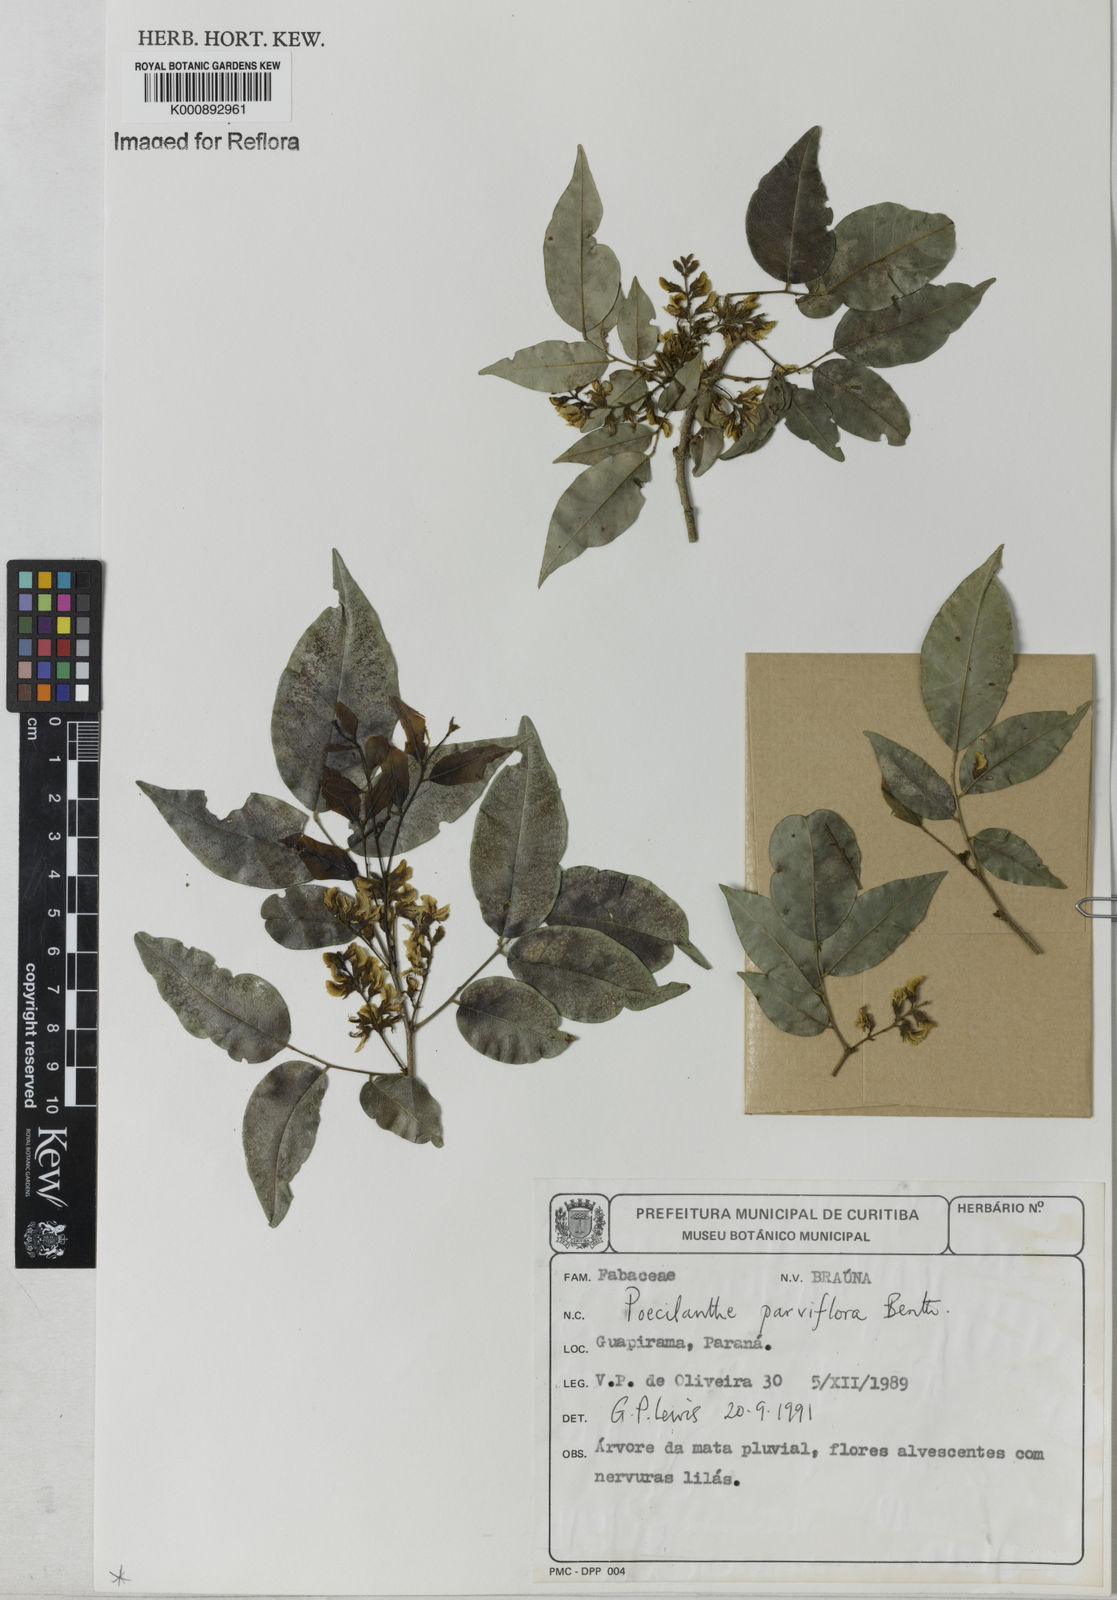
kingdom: Plantae
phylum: Tracheophyta
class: Magnoliopsida
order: Fabales
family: Fabaceae
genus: Poecilanthe
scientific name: Poecilanthe parviflora
